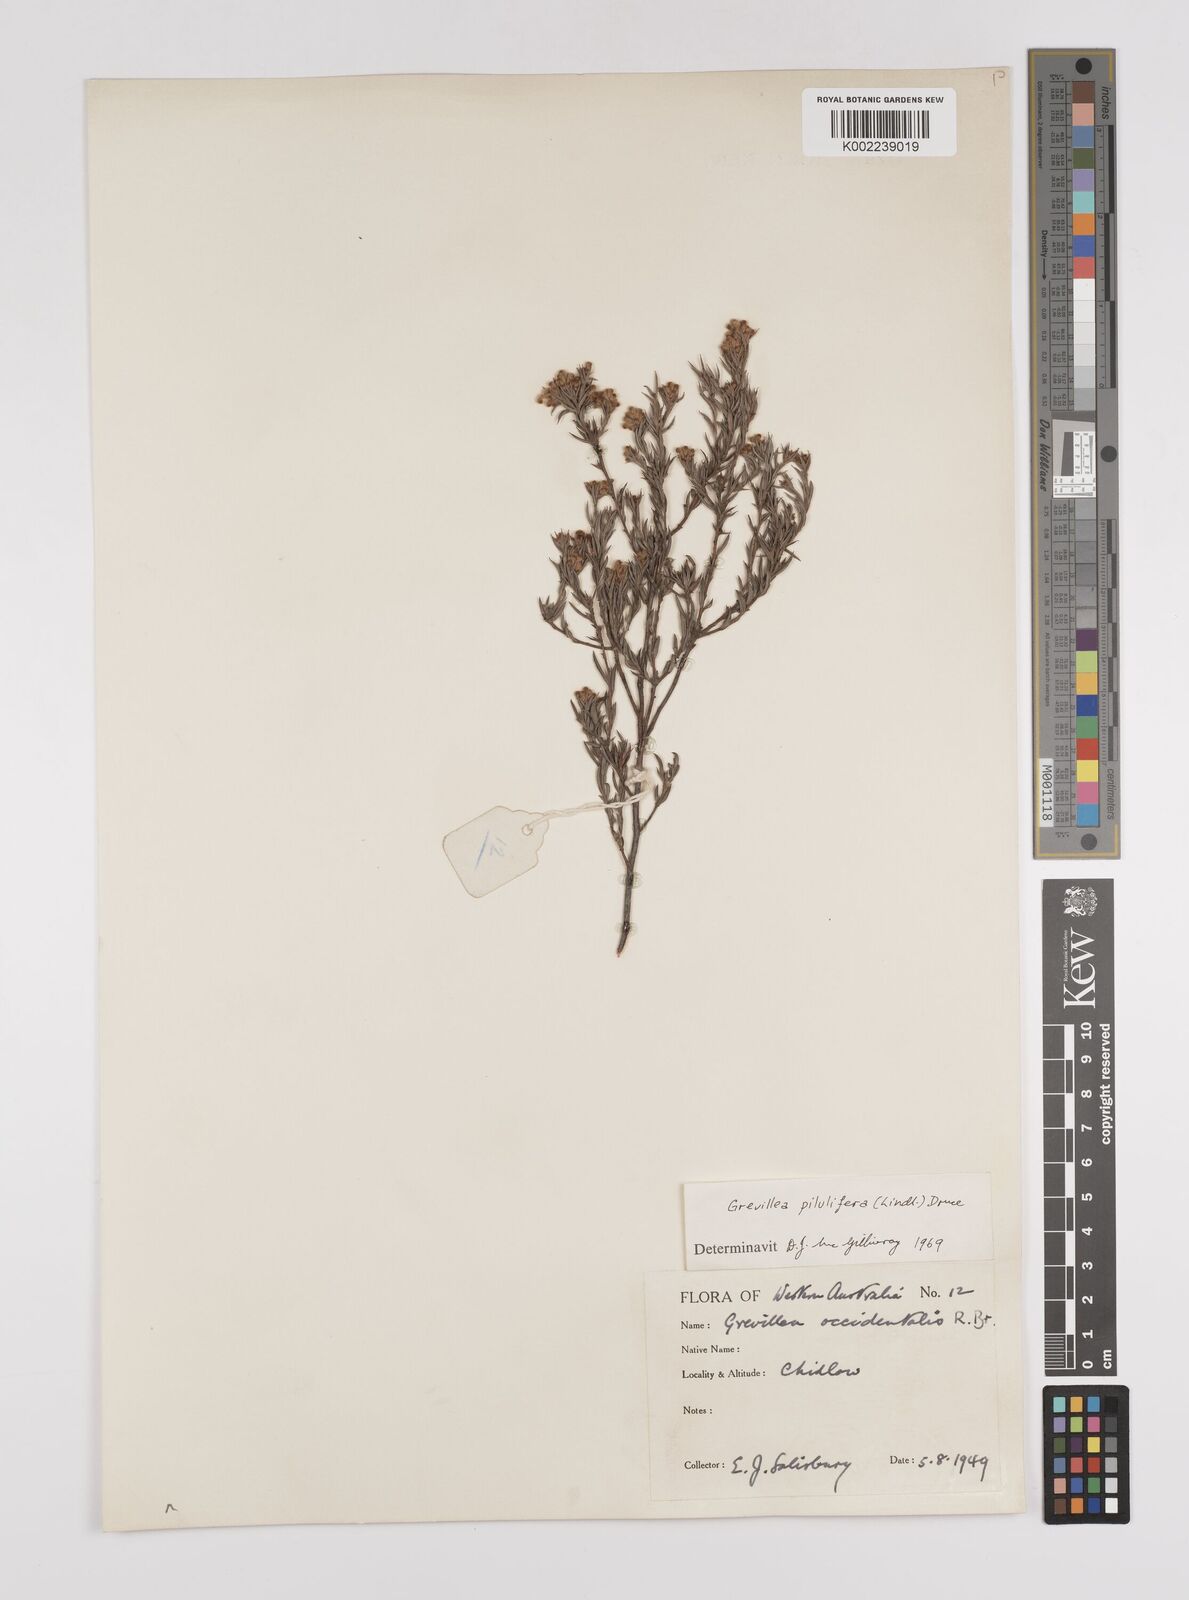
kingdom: Plantae
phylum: Tracheophyta
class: Magnoliopsida
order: Proteales
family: Proteaceae
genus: Grevillea
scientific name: Grevillea pilulifera
